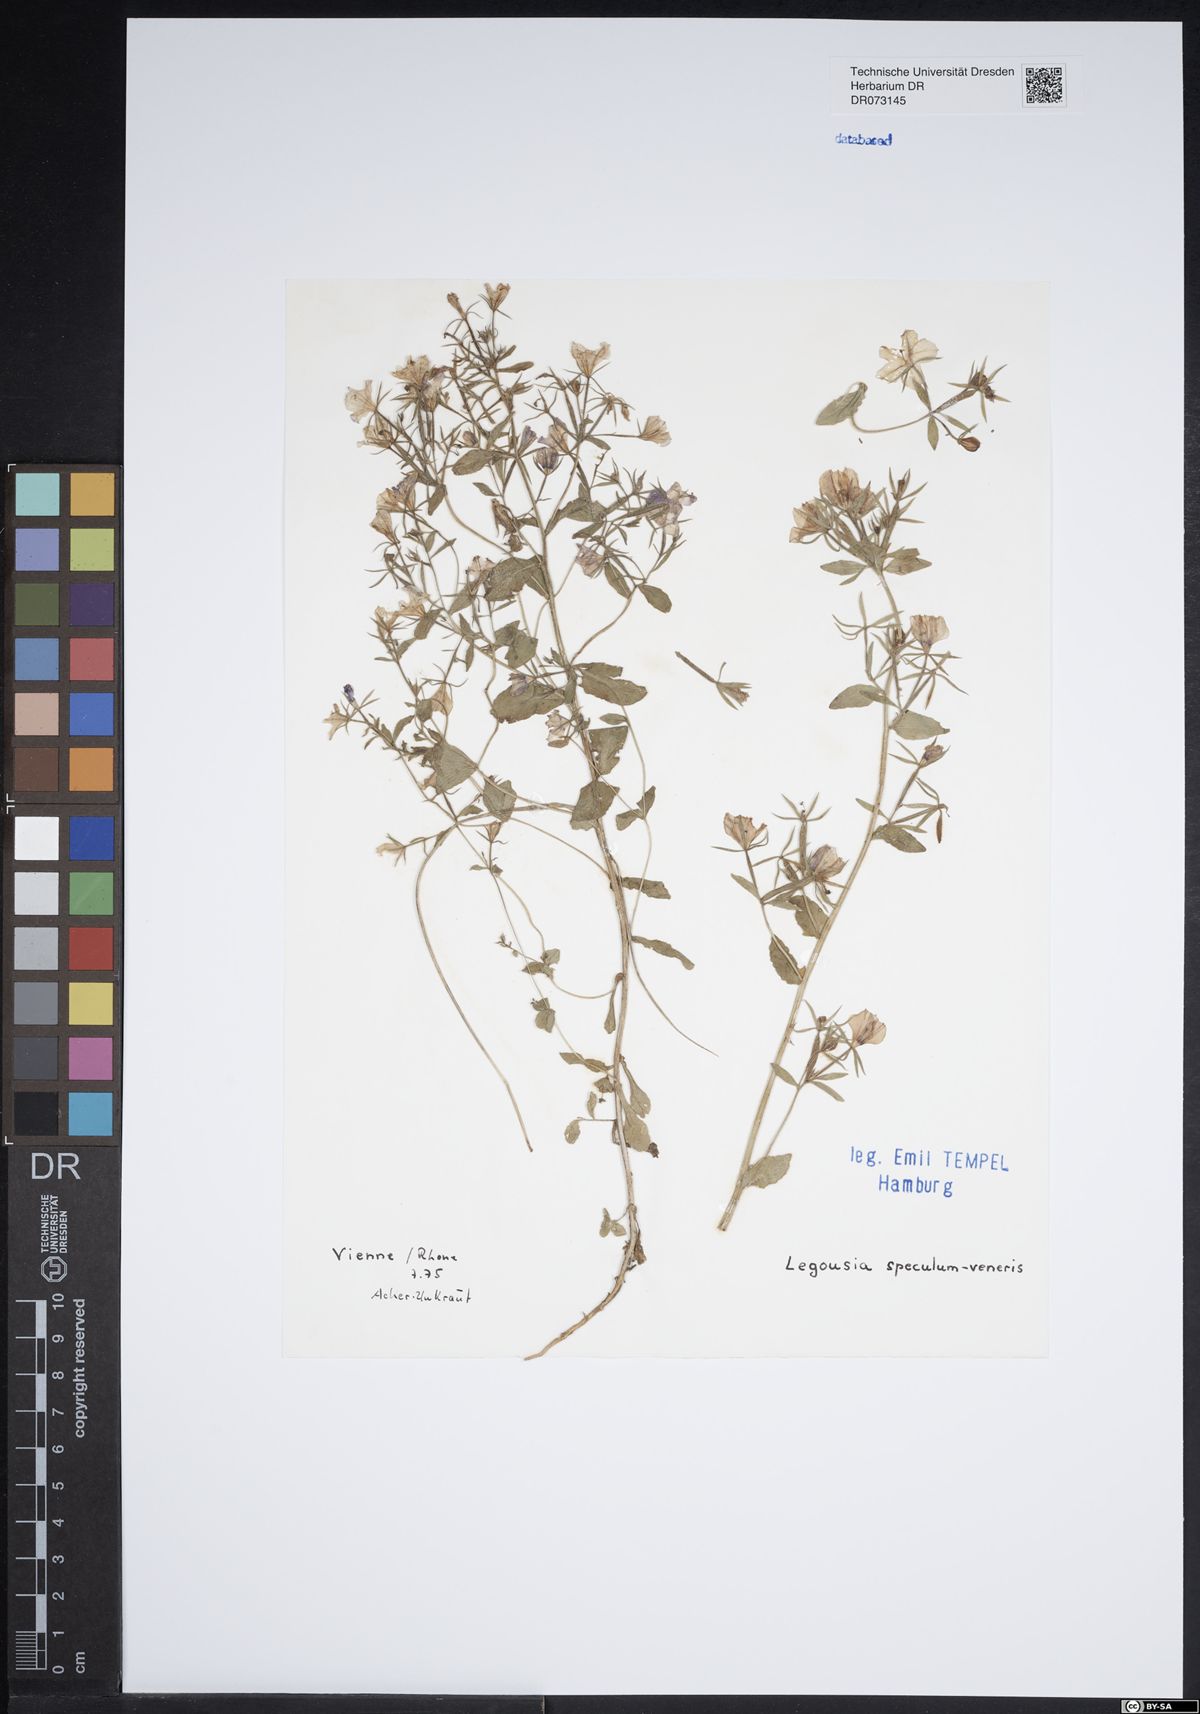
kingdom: Plantae
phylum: Tracheophyta
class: Magnoliopsida
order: Asterales
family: Campanulaceae
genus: Legousia
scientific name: Legousia speculum-veneris
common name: Large venus's-looking-glass
